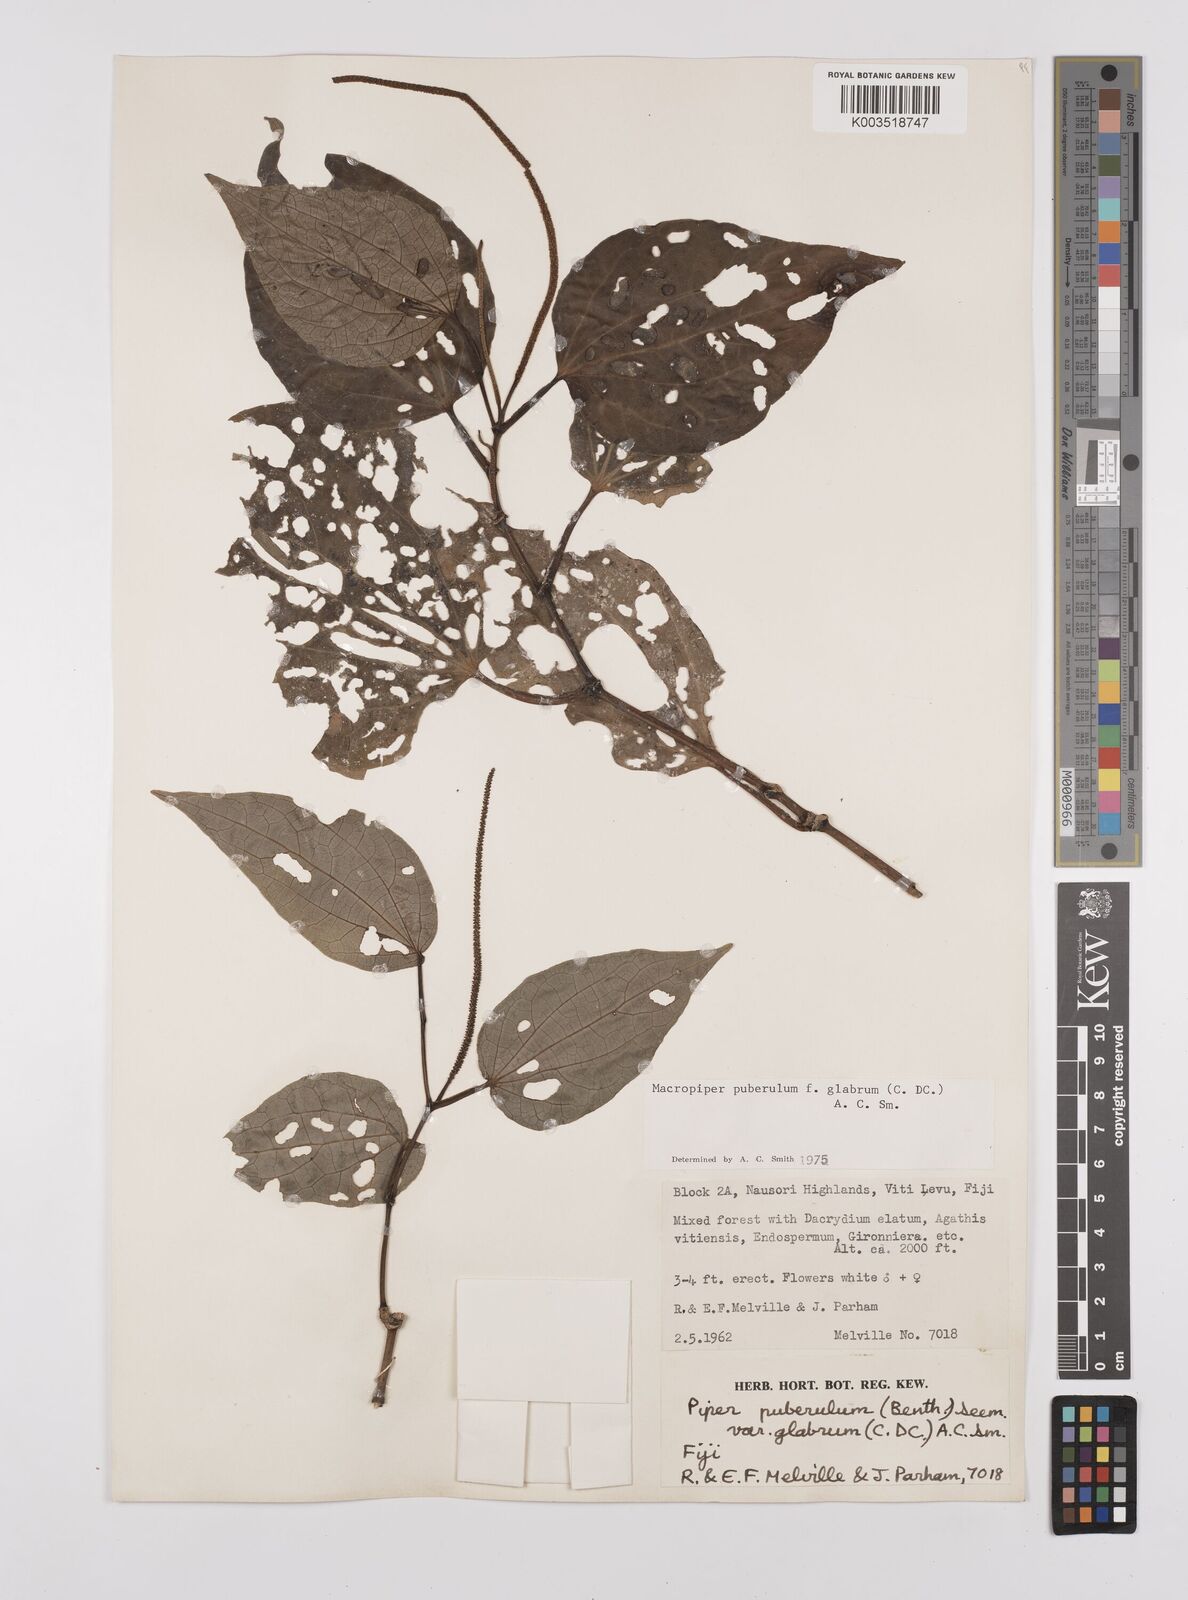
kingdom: Plantae
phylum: Tracheophyta
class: Magnoliopsida
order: Piperales
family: Piperaceae
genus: Macropiper
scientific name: Macropiper puberulum
